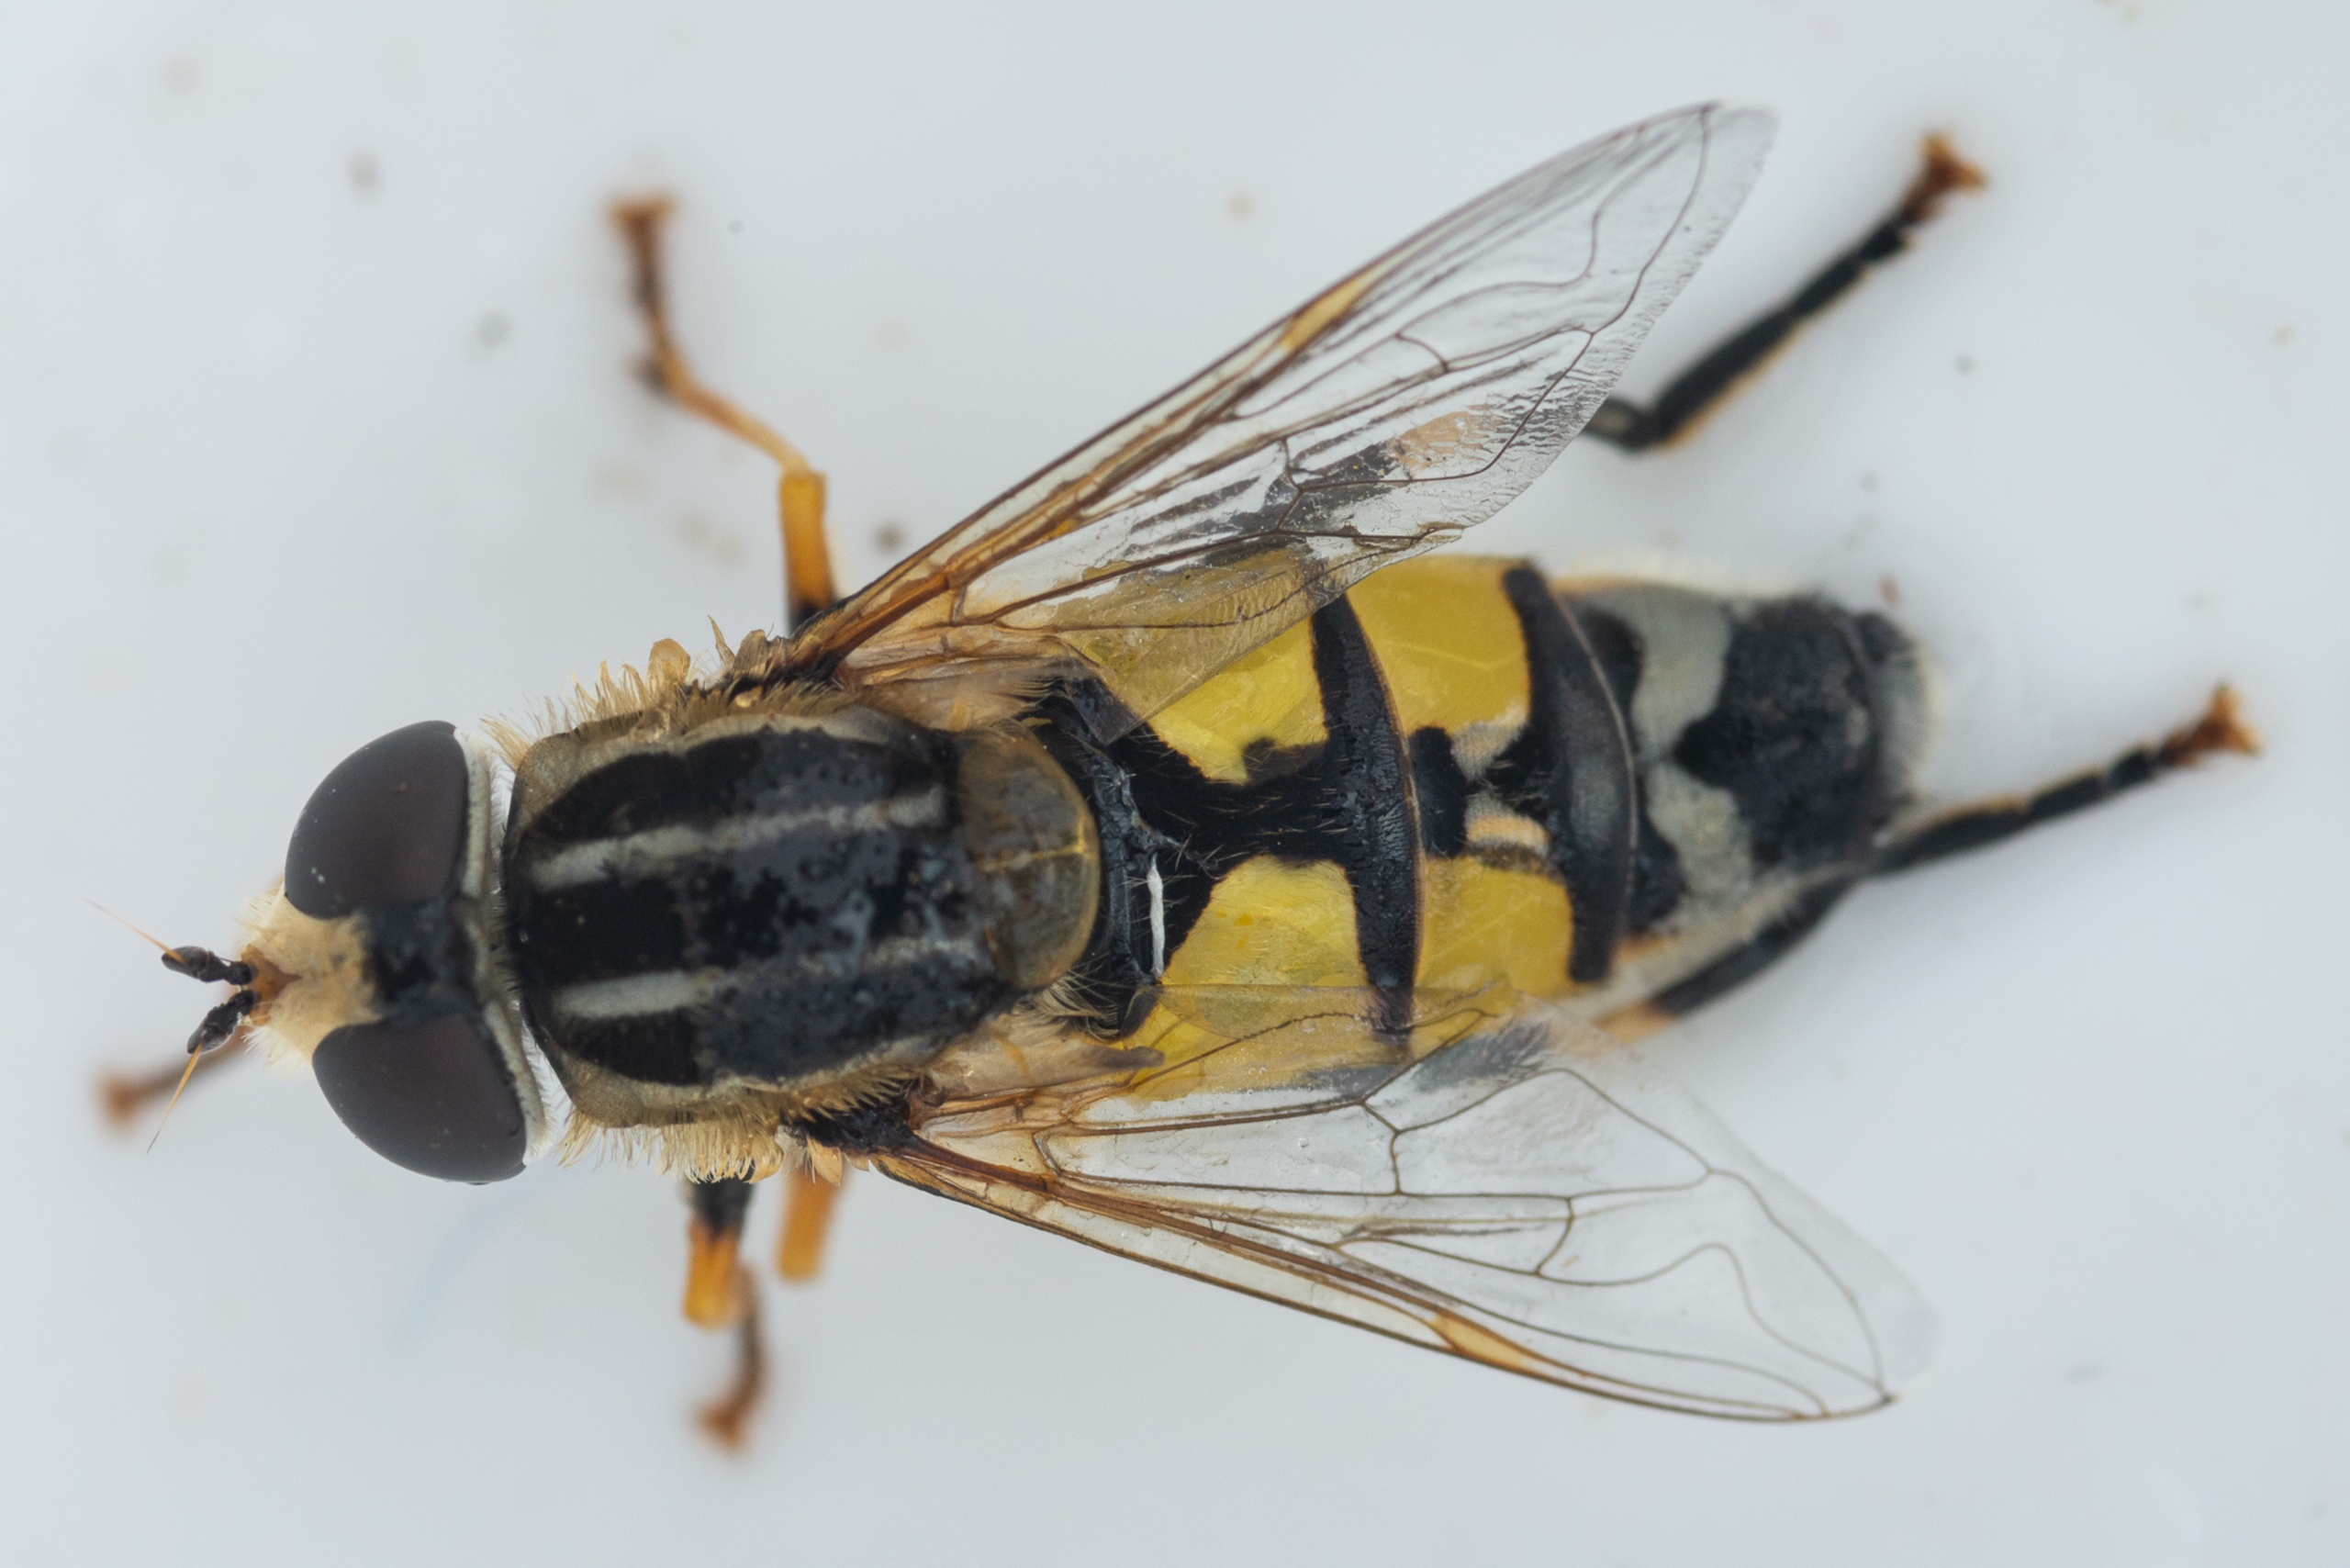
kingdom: Animalia
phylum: Arthropoda
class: Insecta
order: Diptera
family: Syrphidae
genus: Helophilus
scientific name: Helophilus trivittatus
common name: Trebåndet sumpsvirreflue
